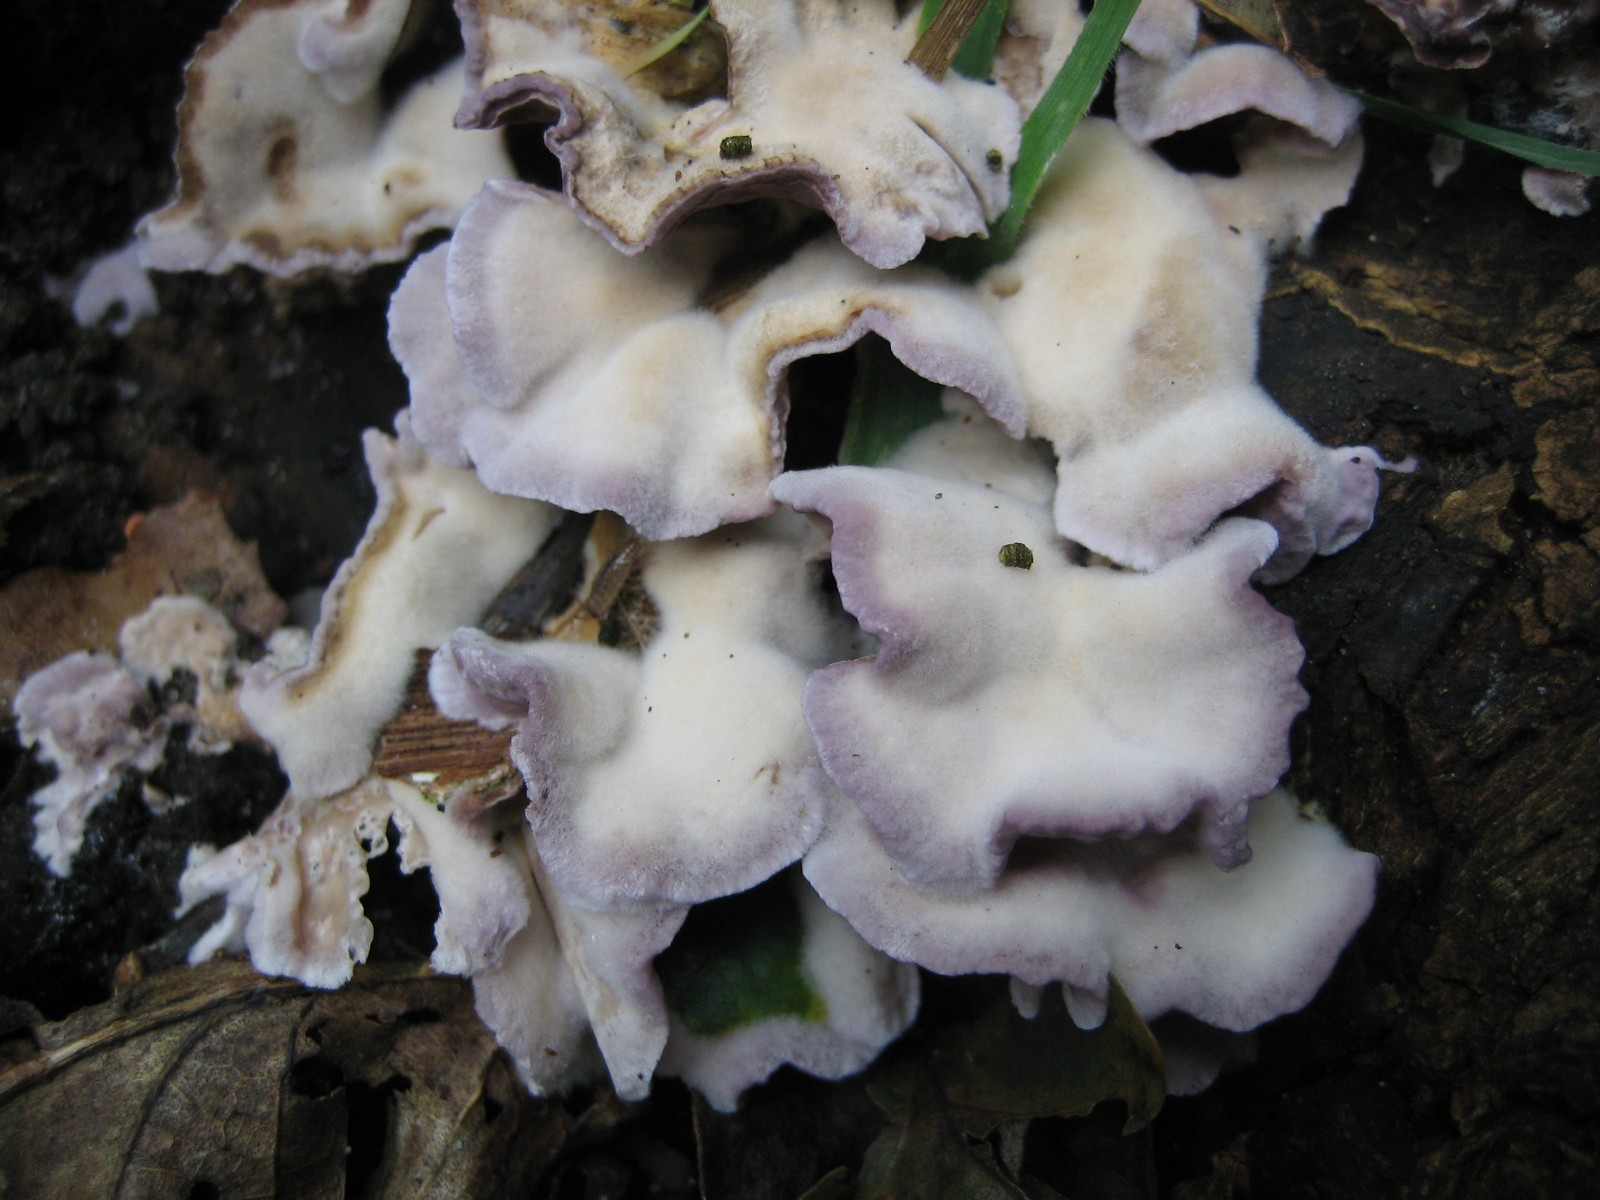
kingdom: Fungi
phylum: Basidiomycota
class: Agaricomycetes
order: Agaricales
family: Cyphellaceae
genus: Chondrostereum
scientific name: Chondrostereum
